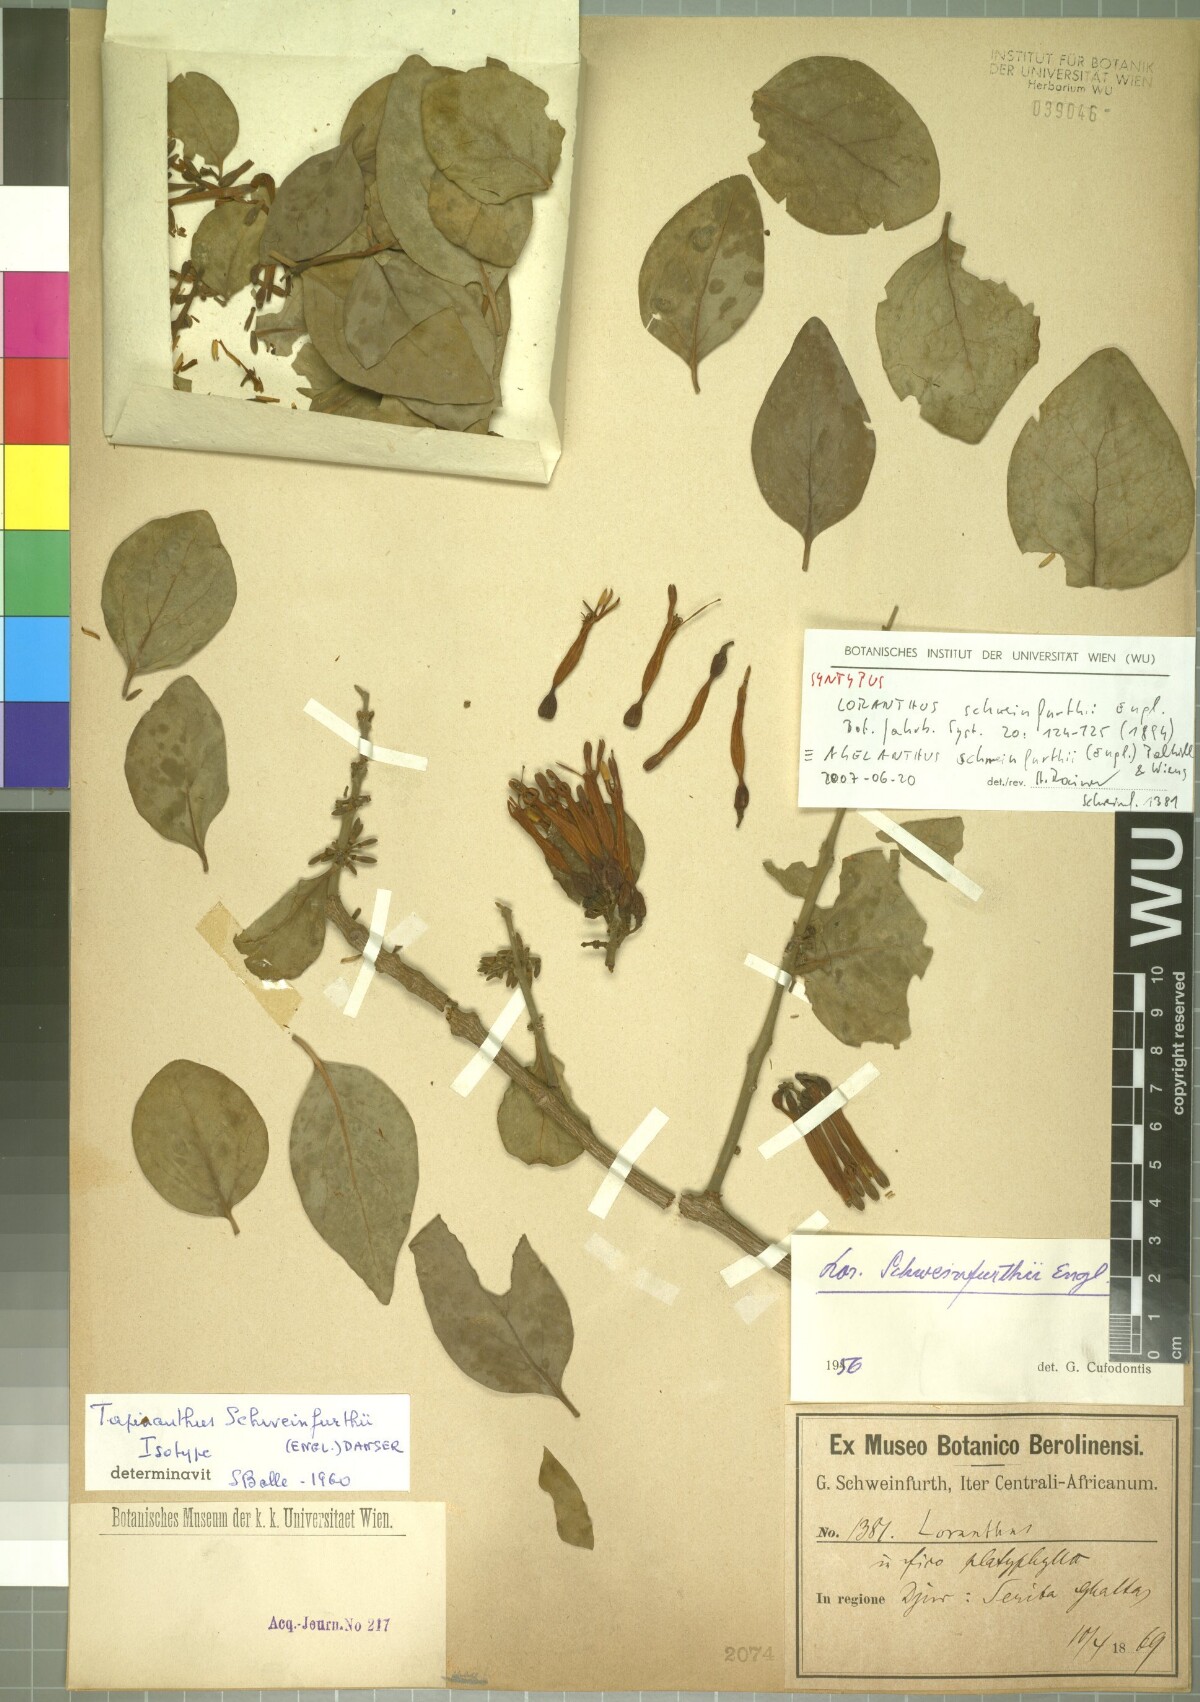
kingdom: Plantae
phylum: Tracheophyta
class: Magnoliopsida
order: Santalales
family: Loranthaceae
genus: Agelanthus
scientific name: Agelanthus schweinfurthii
